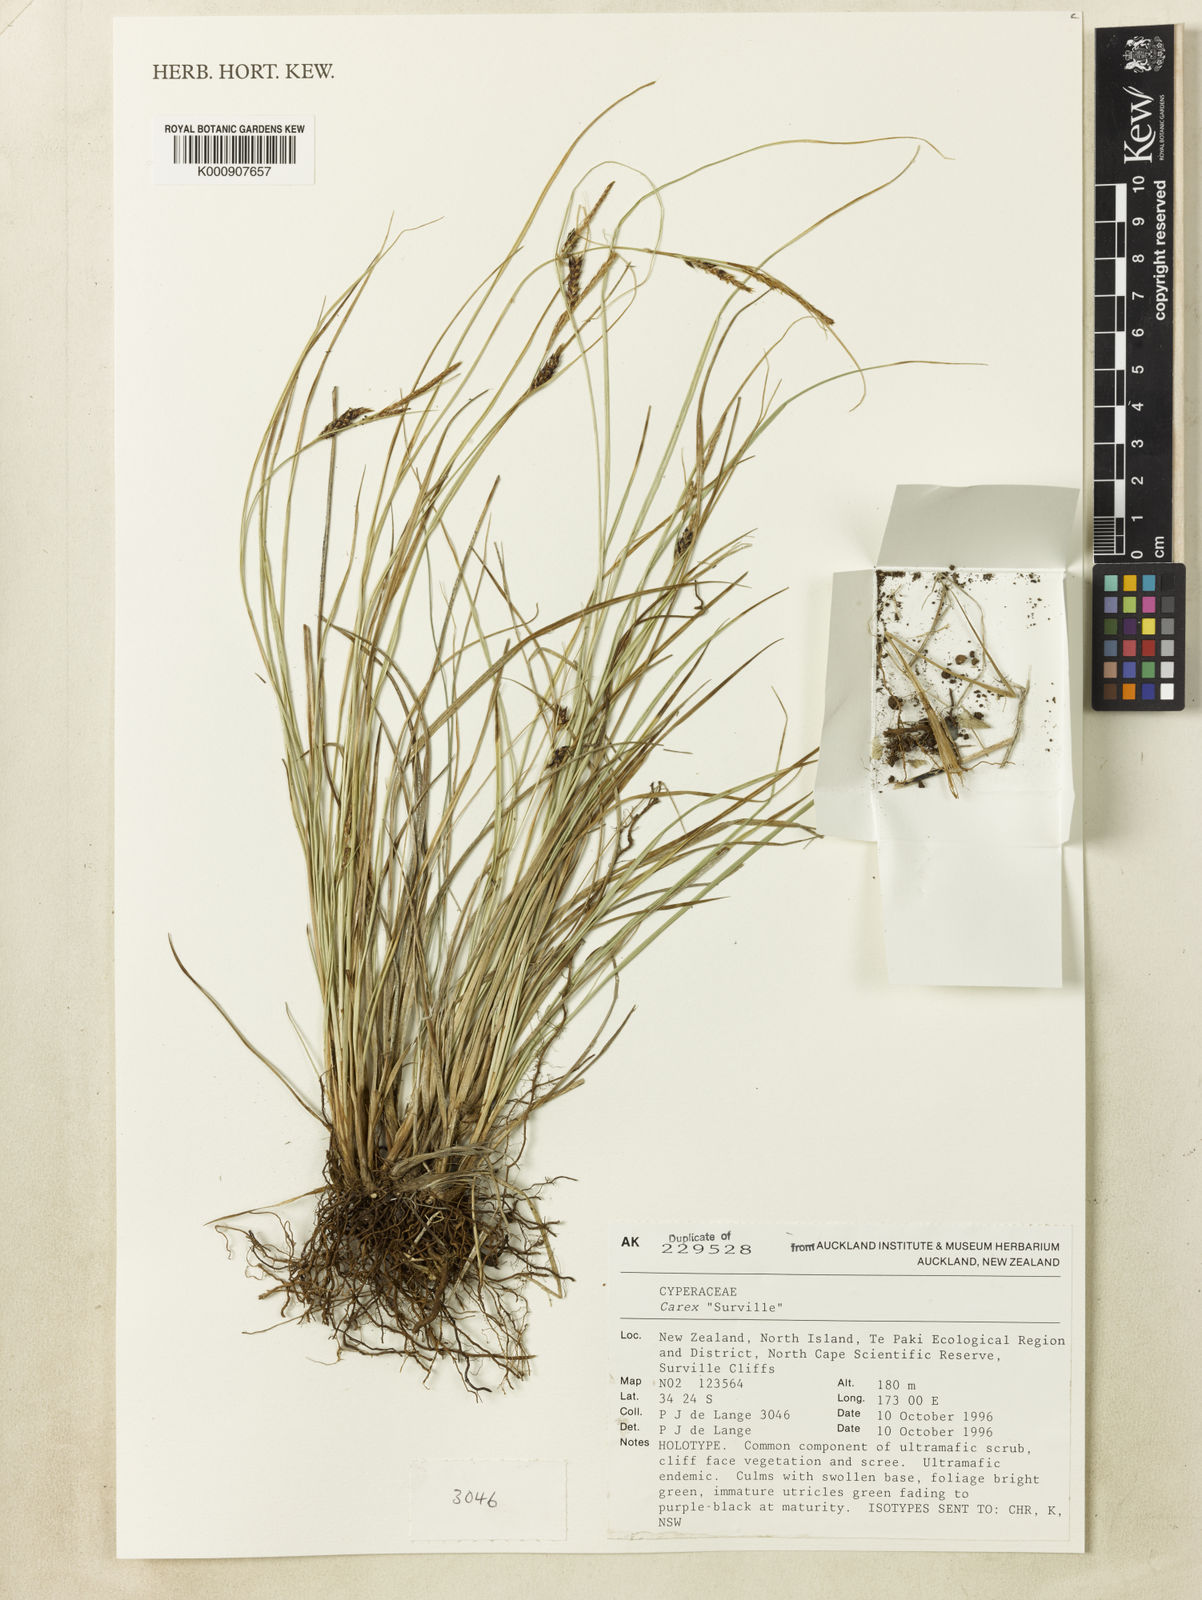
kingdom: Plantae
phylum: Tracheophyta
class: Liliopsida
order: Poales
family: Cyperaceae
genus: Carex
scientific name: Carex
